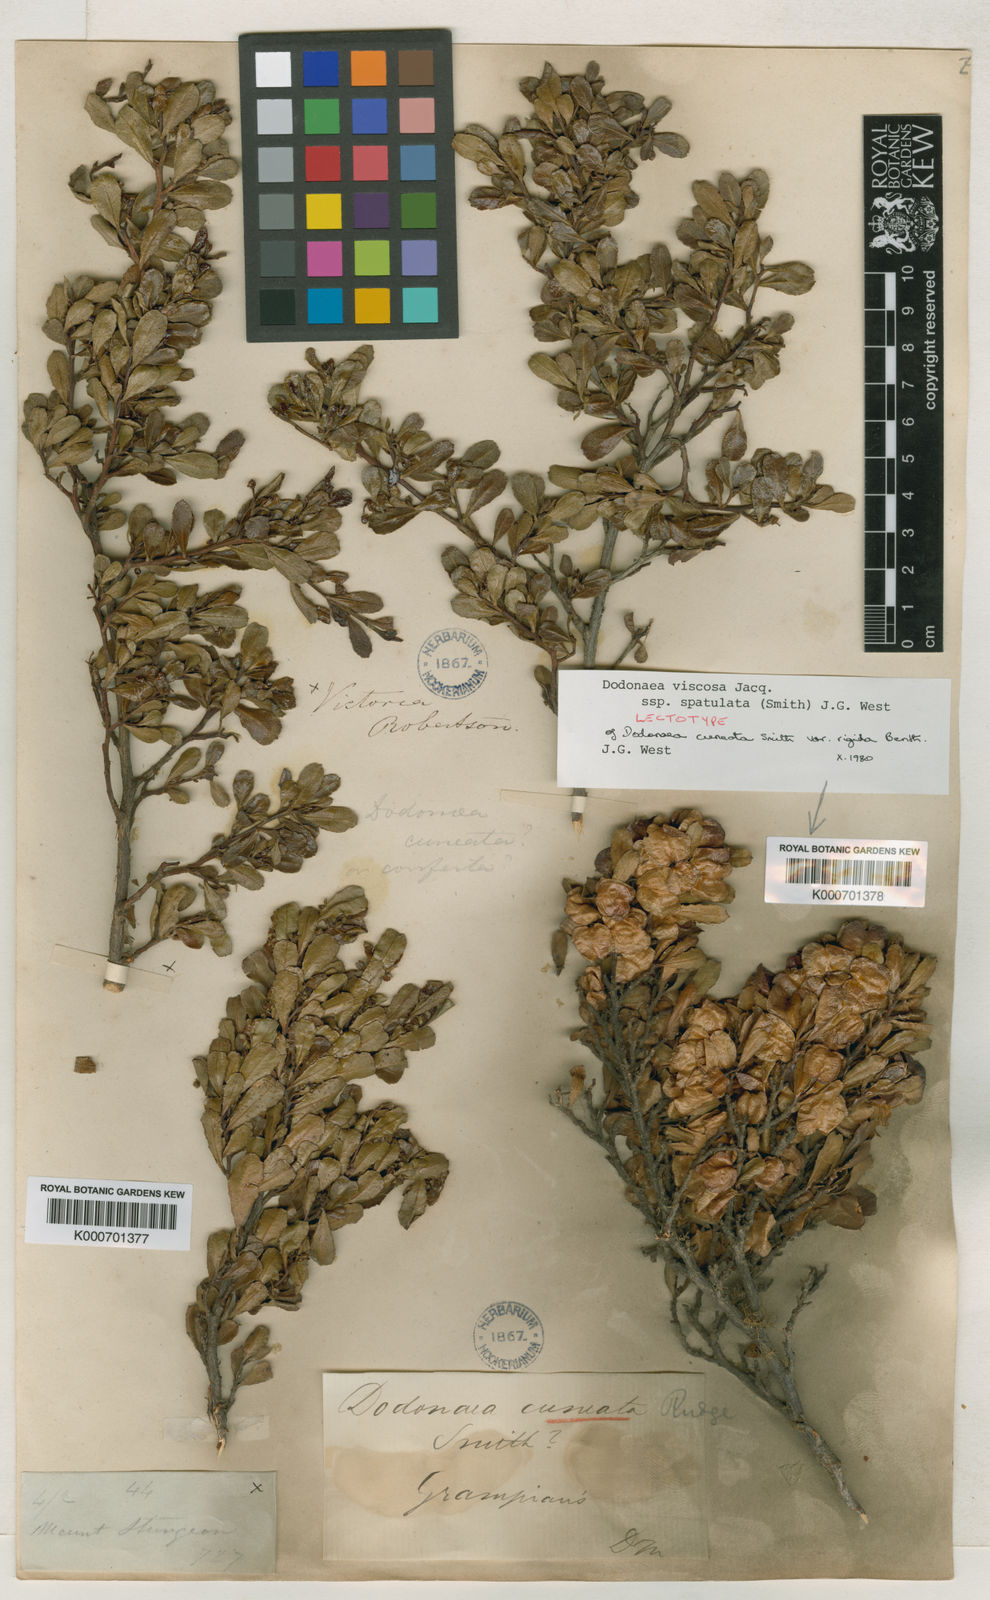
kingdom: Plantae
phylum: Tracheophyta
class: Magnoliopsida
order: Sapindales
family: Sapindaceae
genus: Dodonaea
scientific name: Dodonaea viscosa
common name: Hopbush
